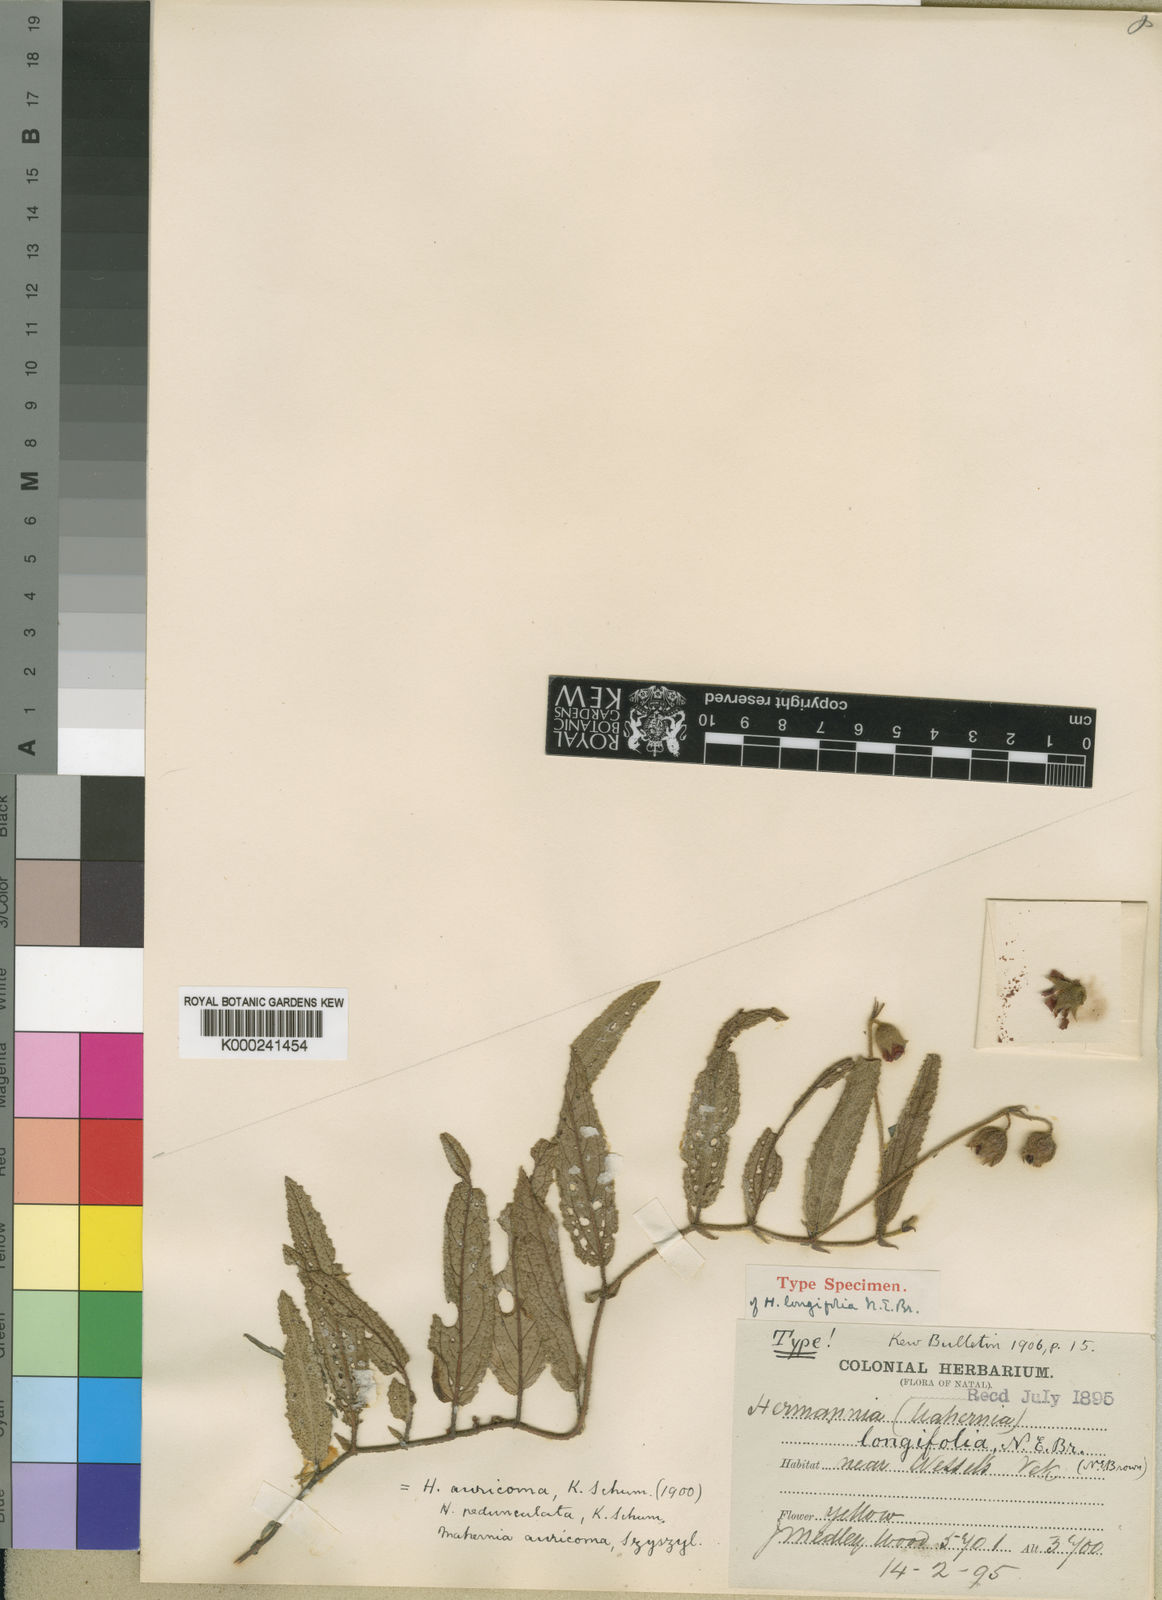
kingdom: Plantae
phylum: Tracheophyta
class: Magnoliopsida
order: Malvales
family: Malvaceae
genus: Hermannia
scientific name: Hermannia auricoma
